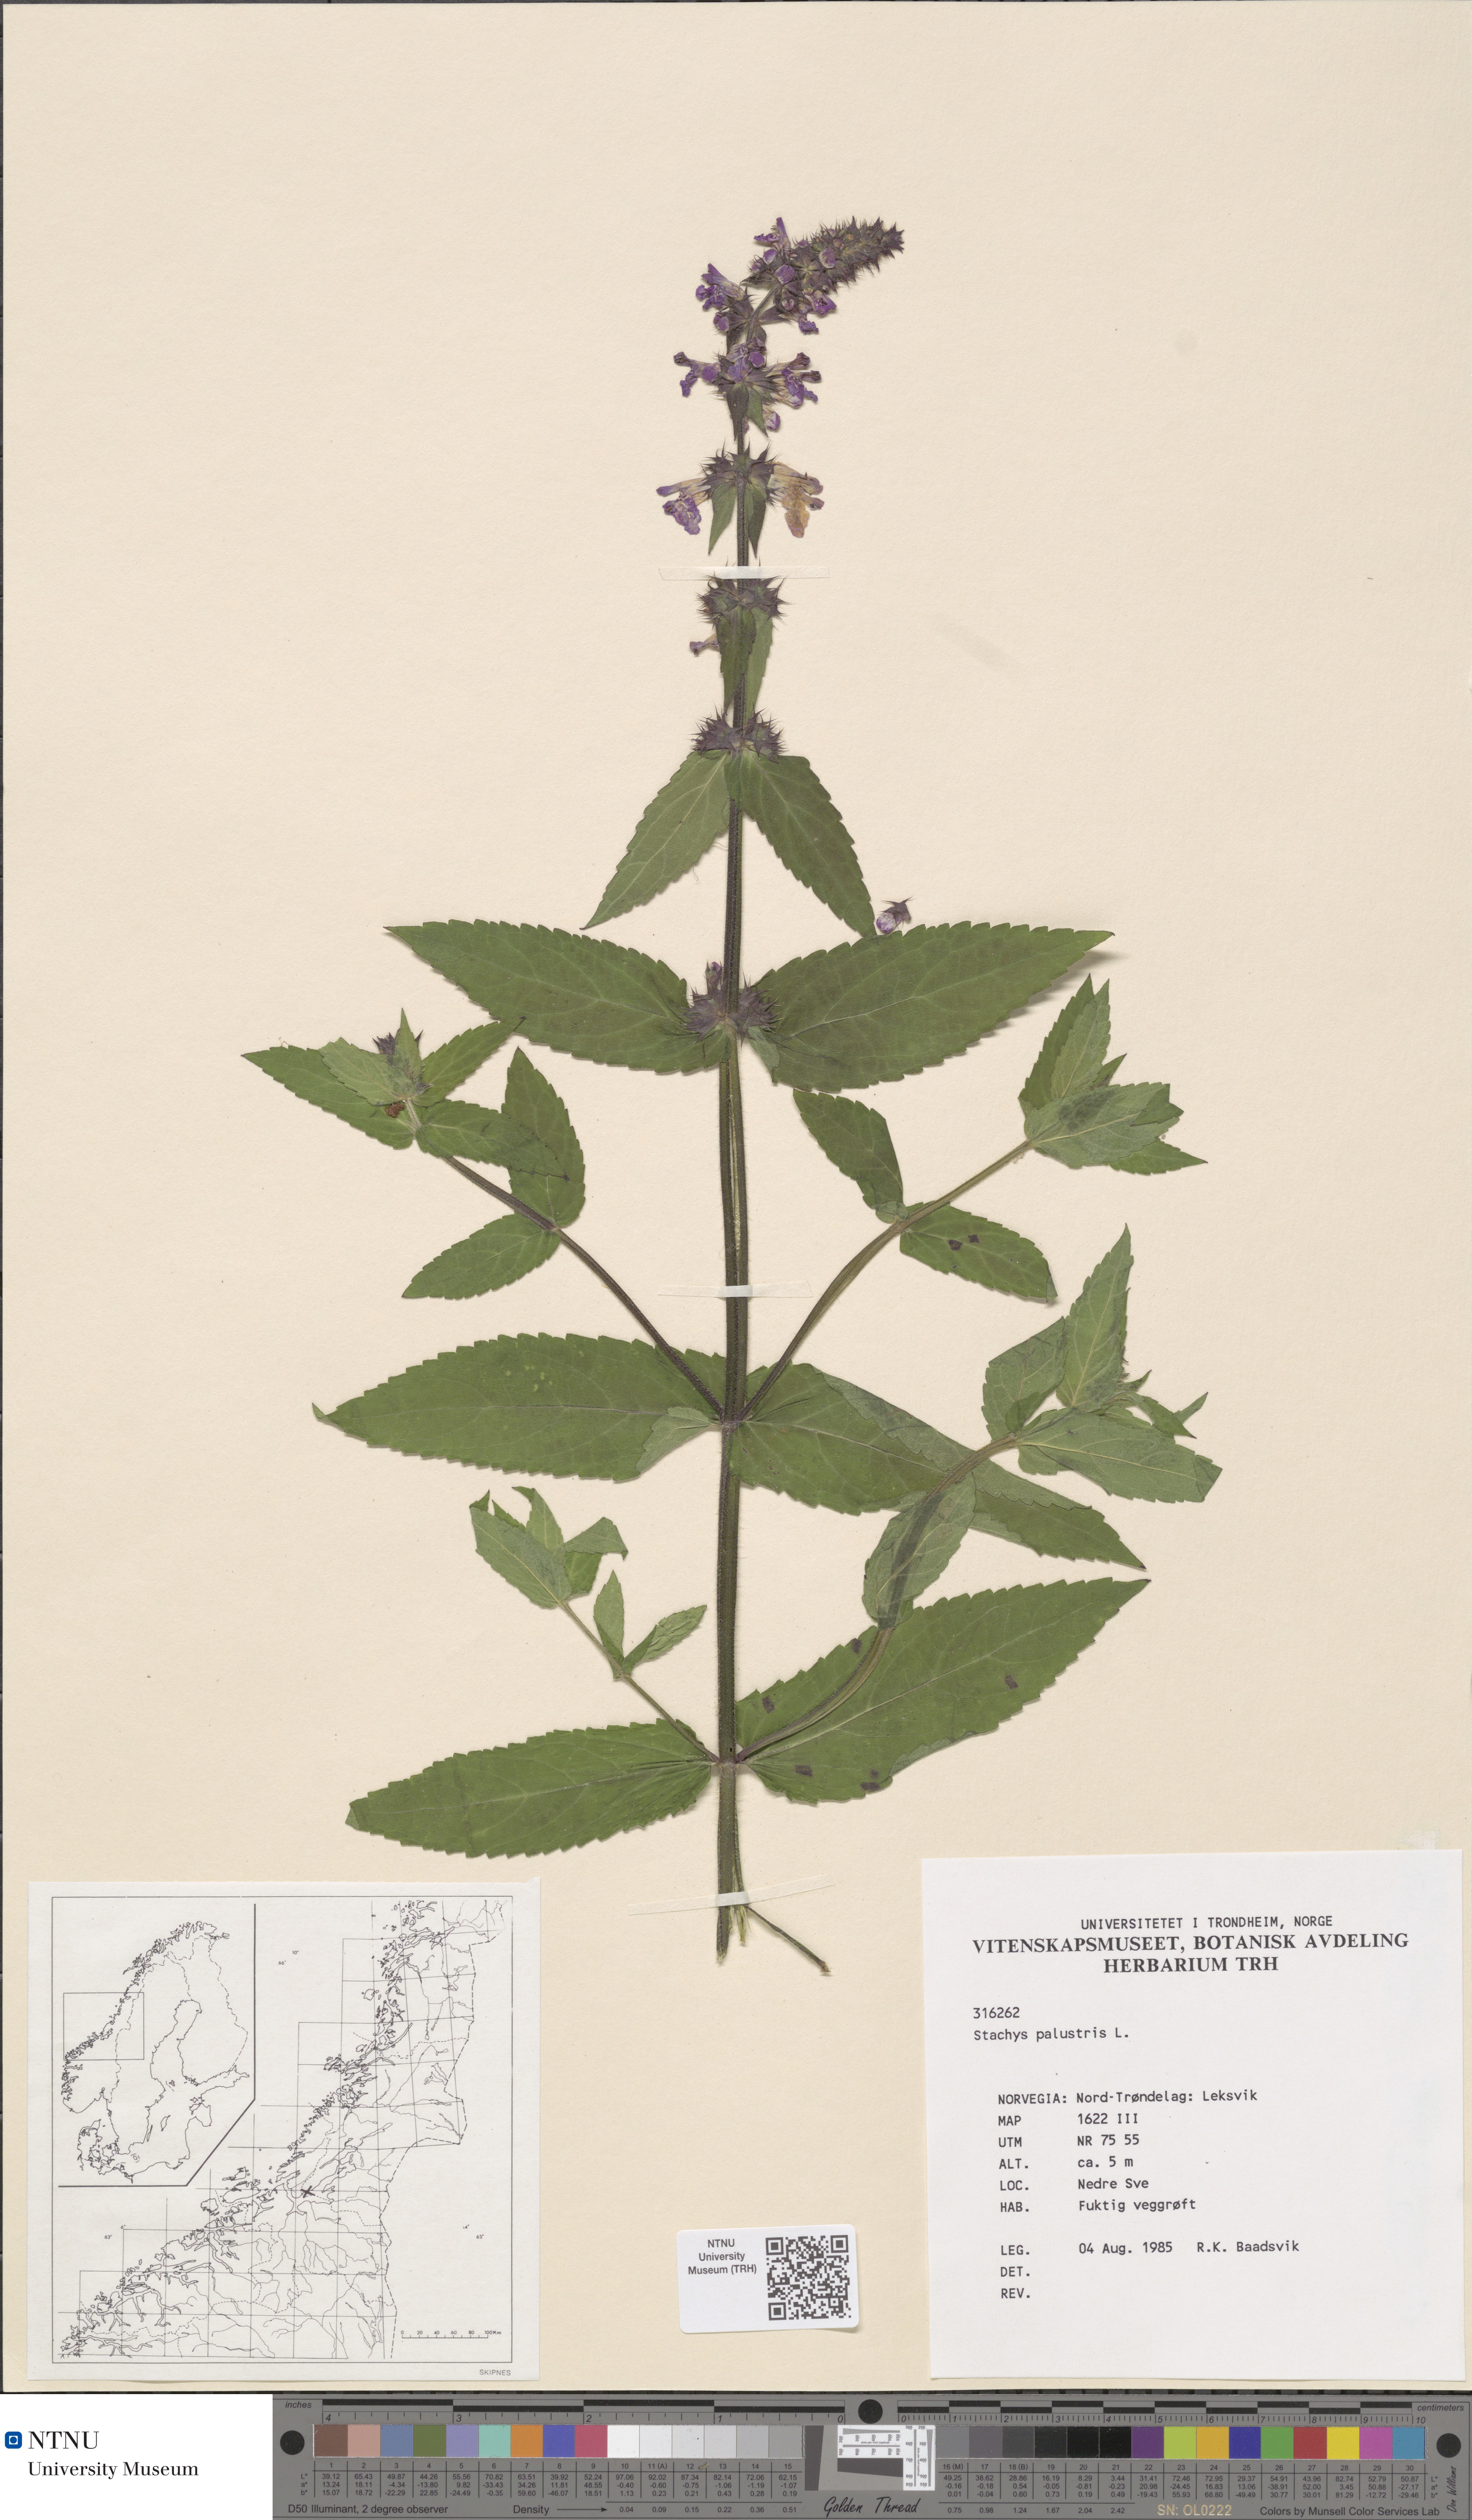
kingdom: Plantae
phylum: Tracheophyta
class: Magnoliopsida
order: Lamiales
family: Lamiaceae
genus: Stachys
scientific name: Stachys palustris
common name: Marsh woundwort
